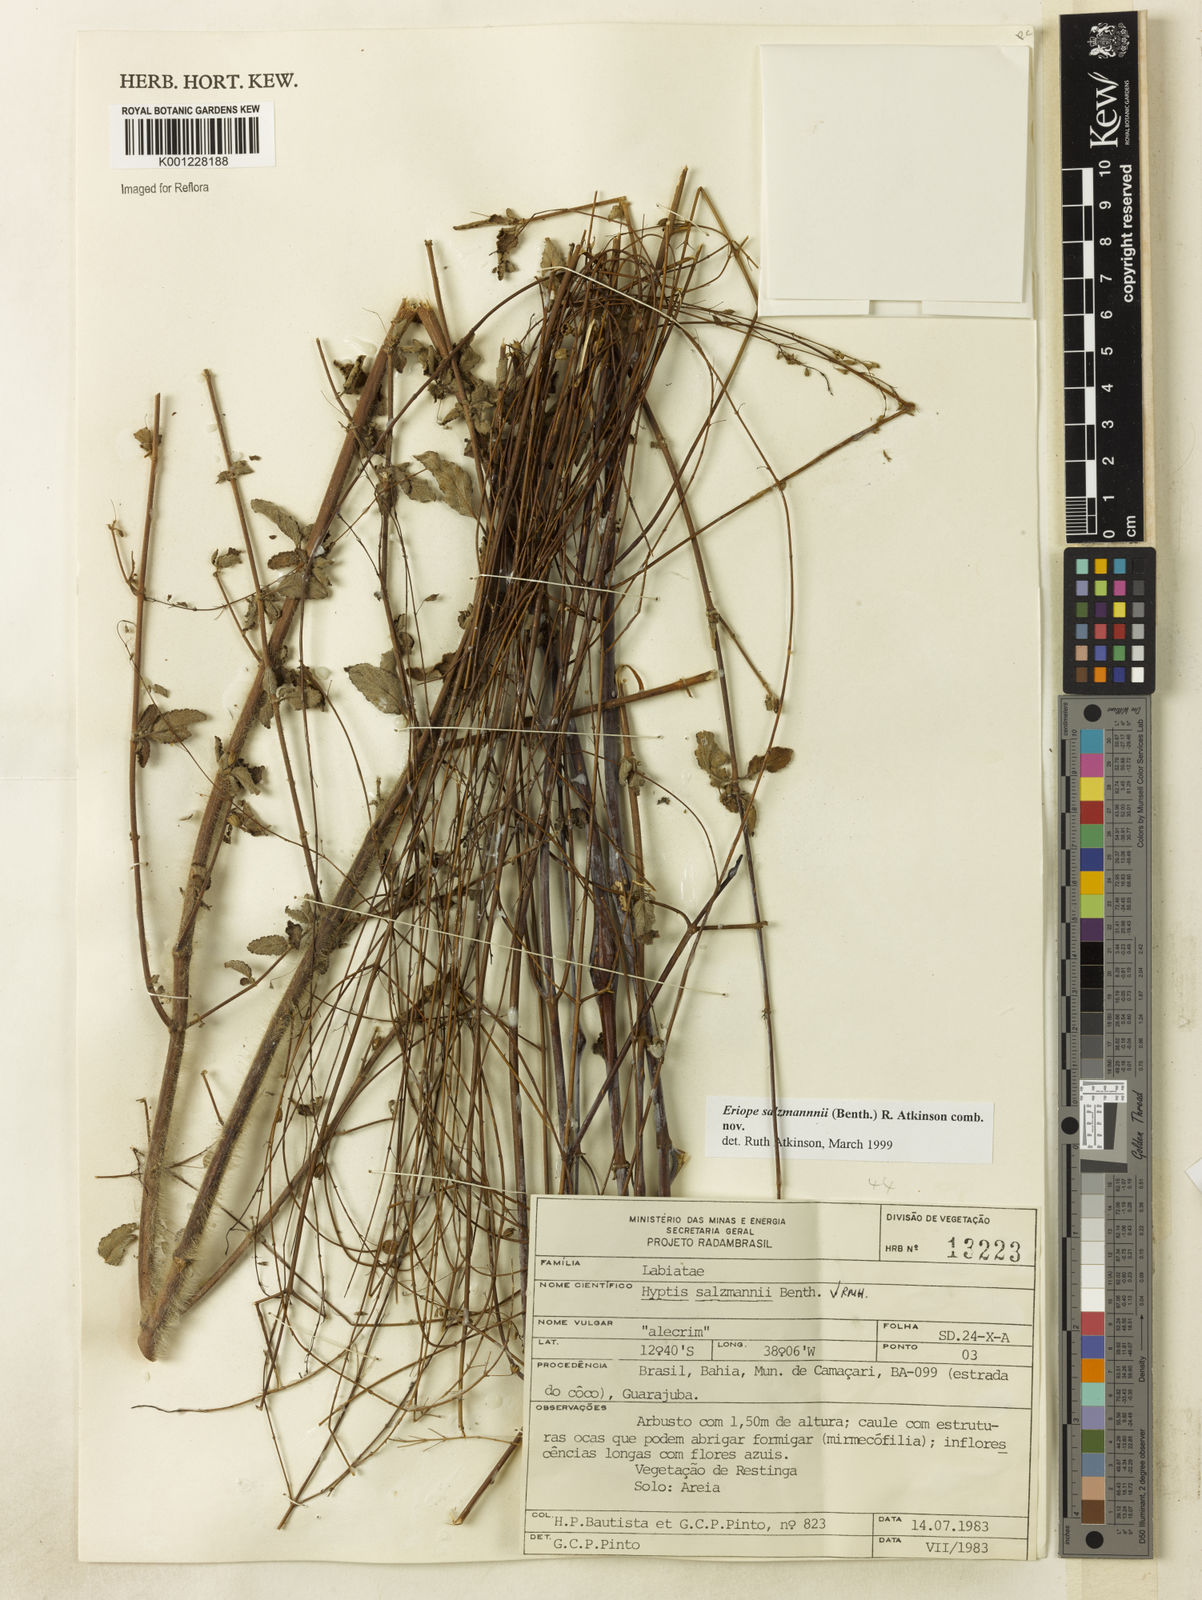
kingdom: Plantae
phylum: Tracheophyta
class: Magnoliopsida
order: Lamiales
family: Lamiaceae
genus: Hypenia
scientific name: Hypenia salzmannii
